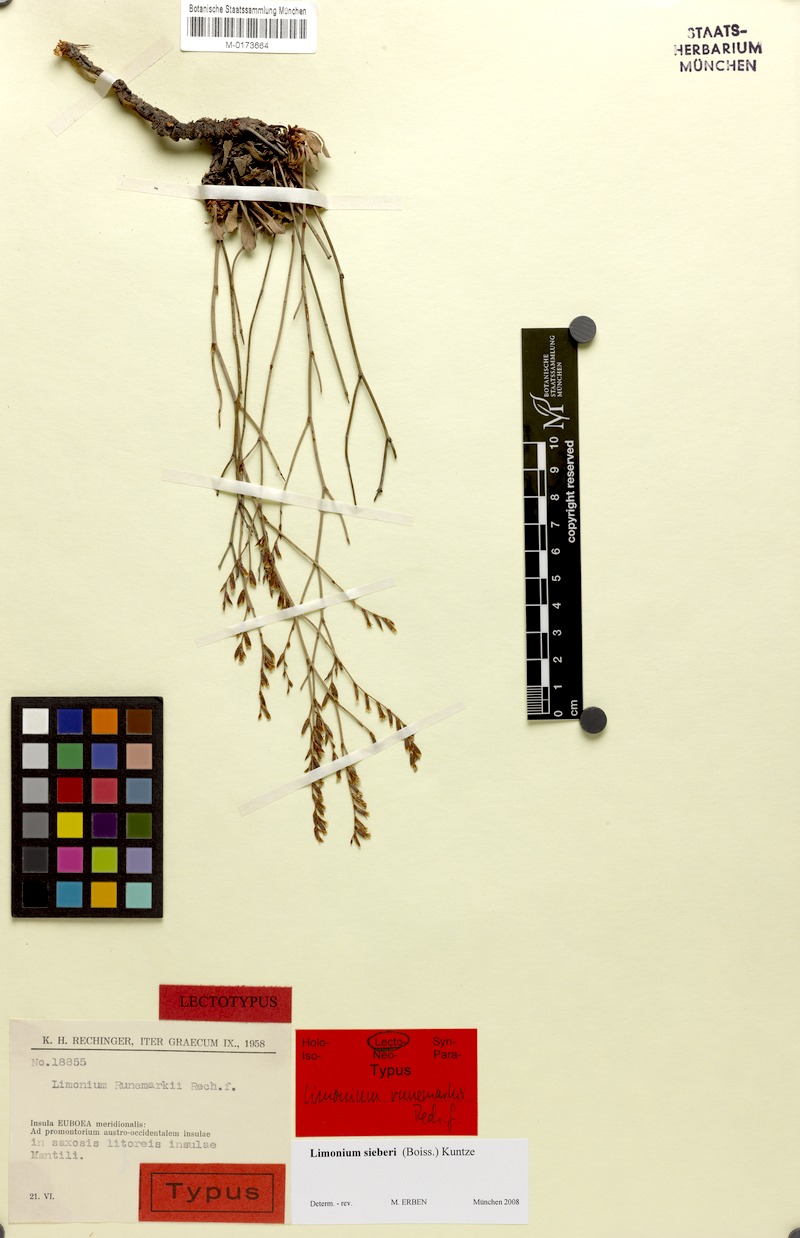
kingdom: Plantae
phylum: Tracheophyta
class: Magnoliopsida
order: Caryophyllales
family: Plumbaginaceae
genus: Limonium
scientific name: Limonium sieberi
